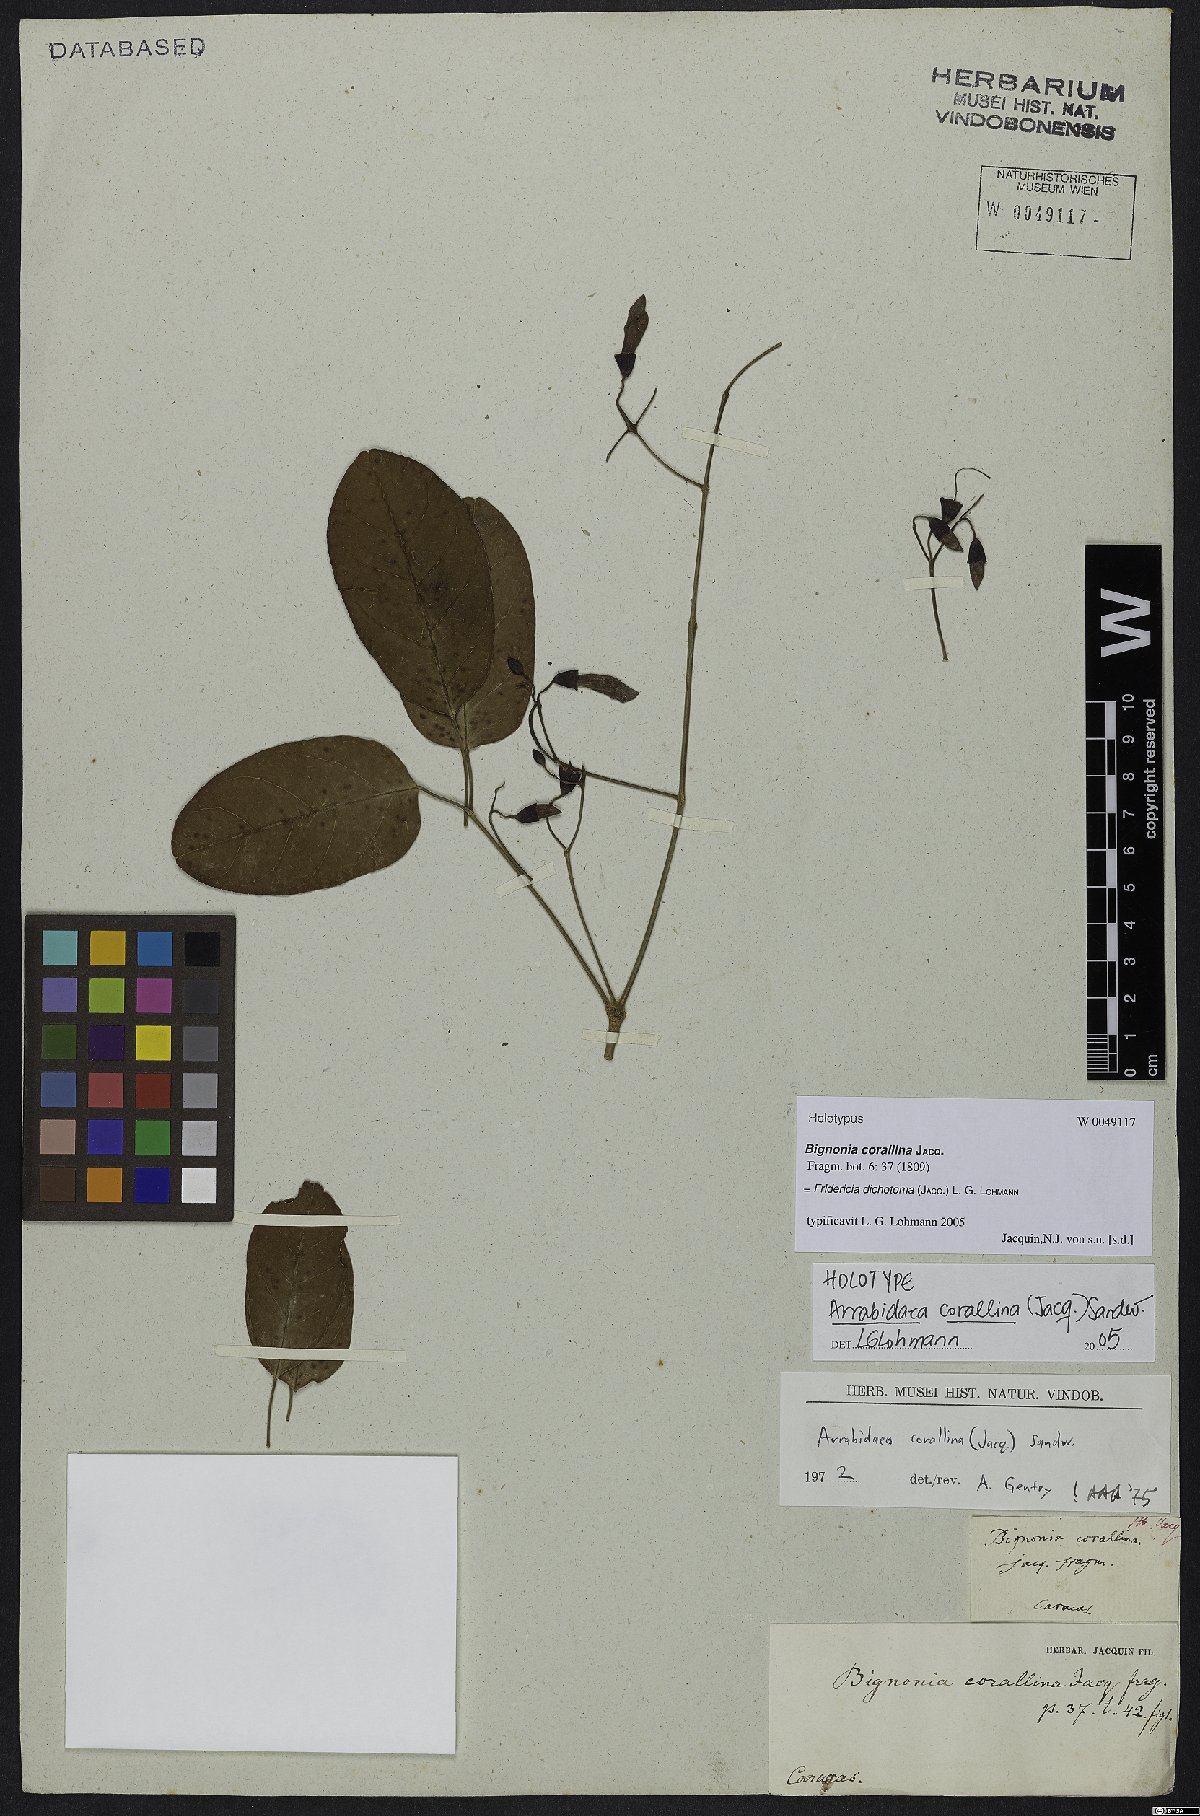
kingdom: Plantae
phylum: Tracheophyta
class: Magnoliopsida
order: Lamiales
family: Bignoniaceae
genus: Tanaecium
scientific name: Tanaecium dichotomum
